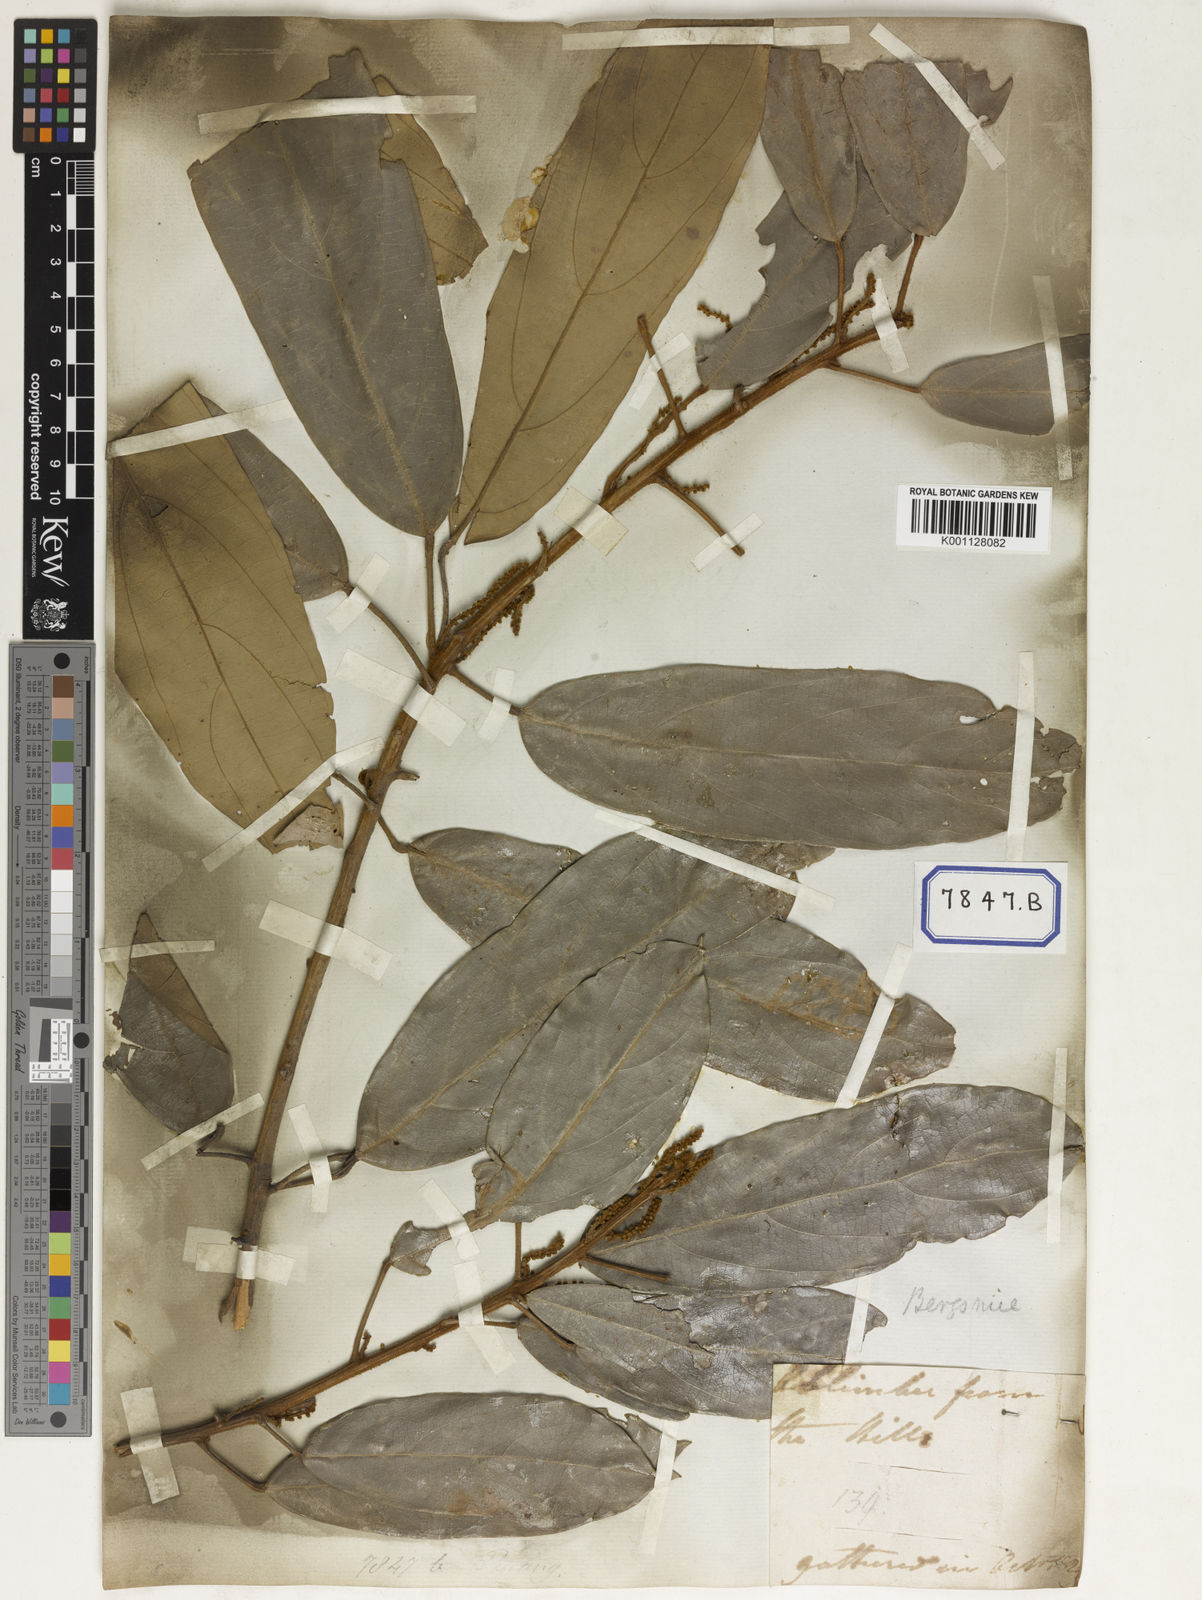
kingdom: Plantae
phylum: Tracheophyta
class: Magnoliopsida
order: Malpighiales
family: Euphorbiaceae
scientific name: Euphorbiaceae
